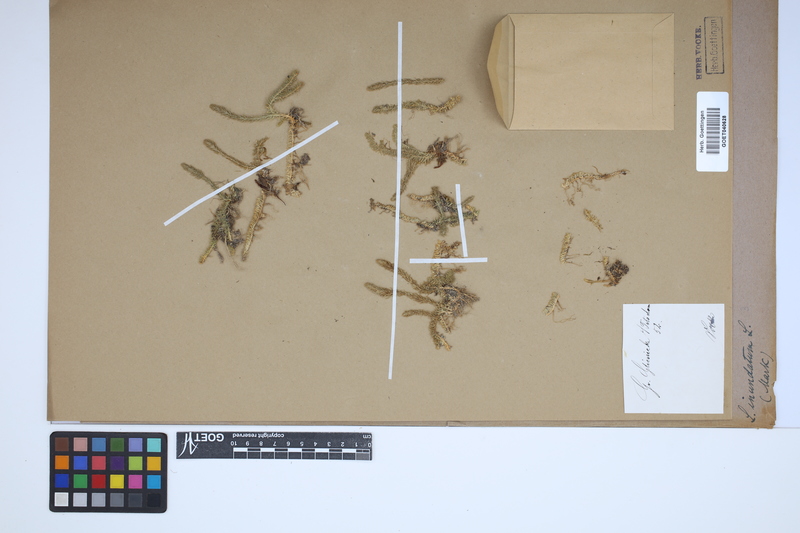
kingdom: Plantae
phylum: Tracheophyta
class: Lycopodiopsida
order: Lycopodiales
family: Lycopodiaceae
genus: Lycopodiella
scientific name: Lycopodiella inundata
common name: Marsh clubmoss
